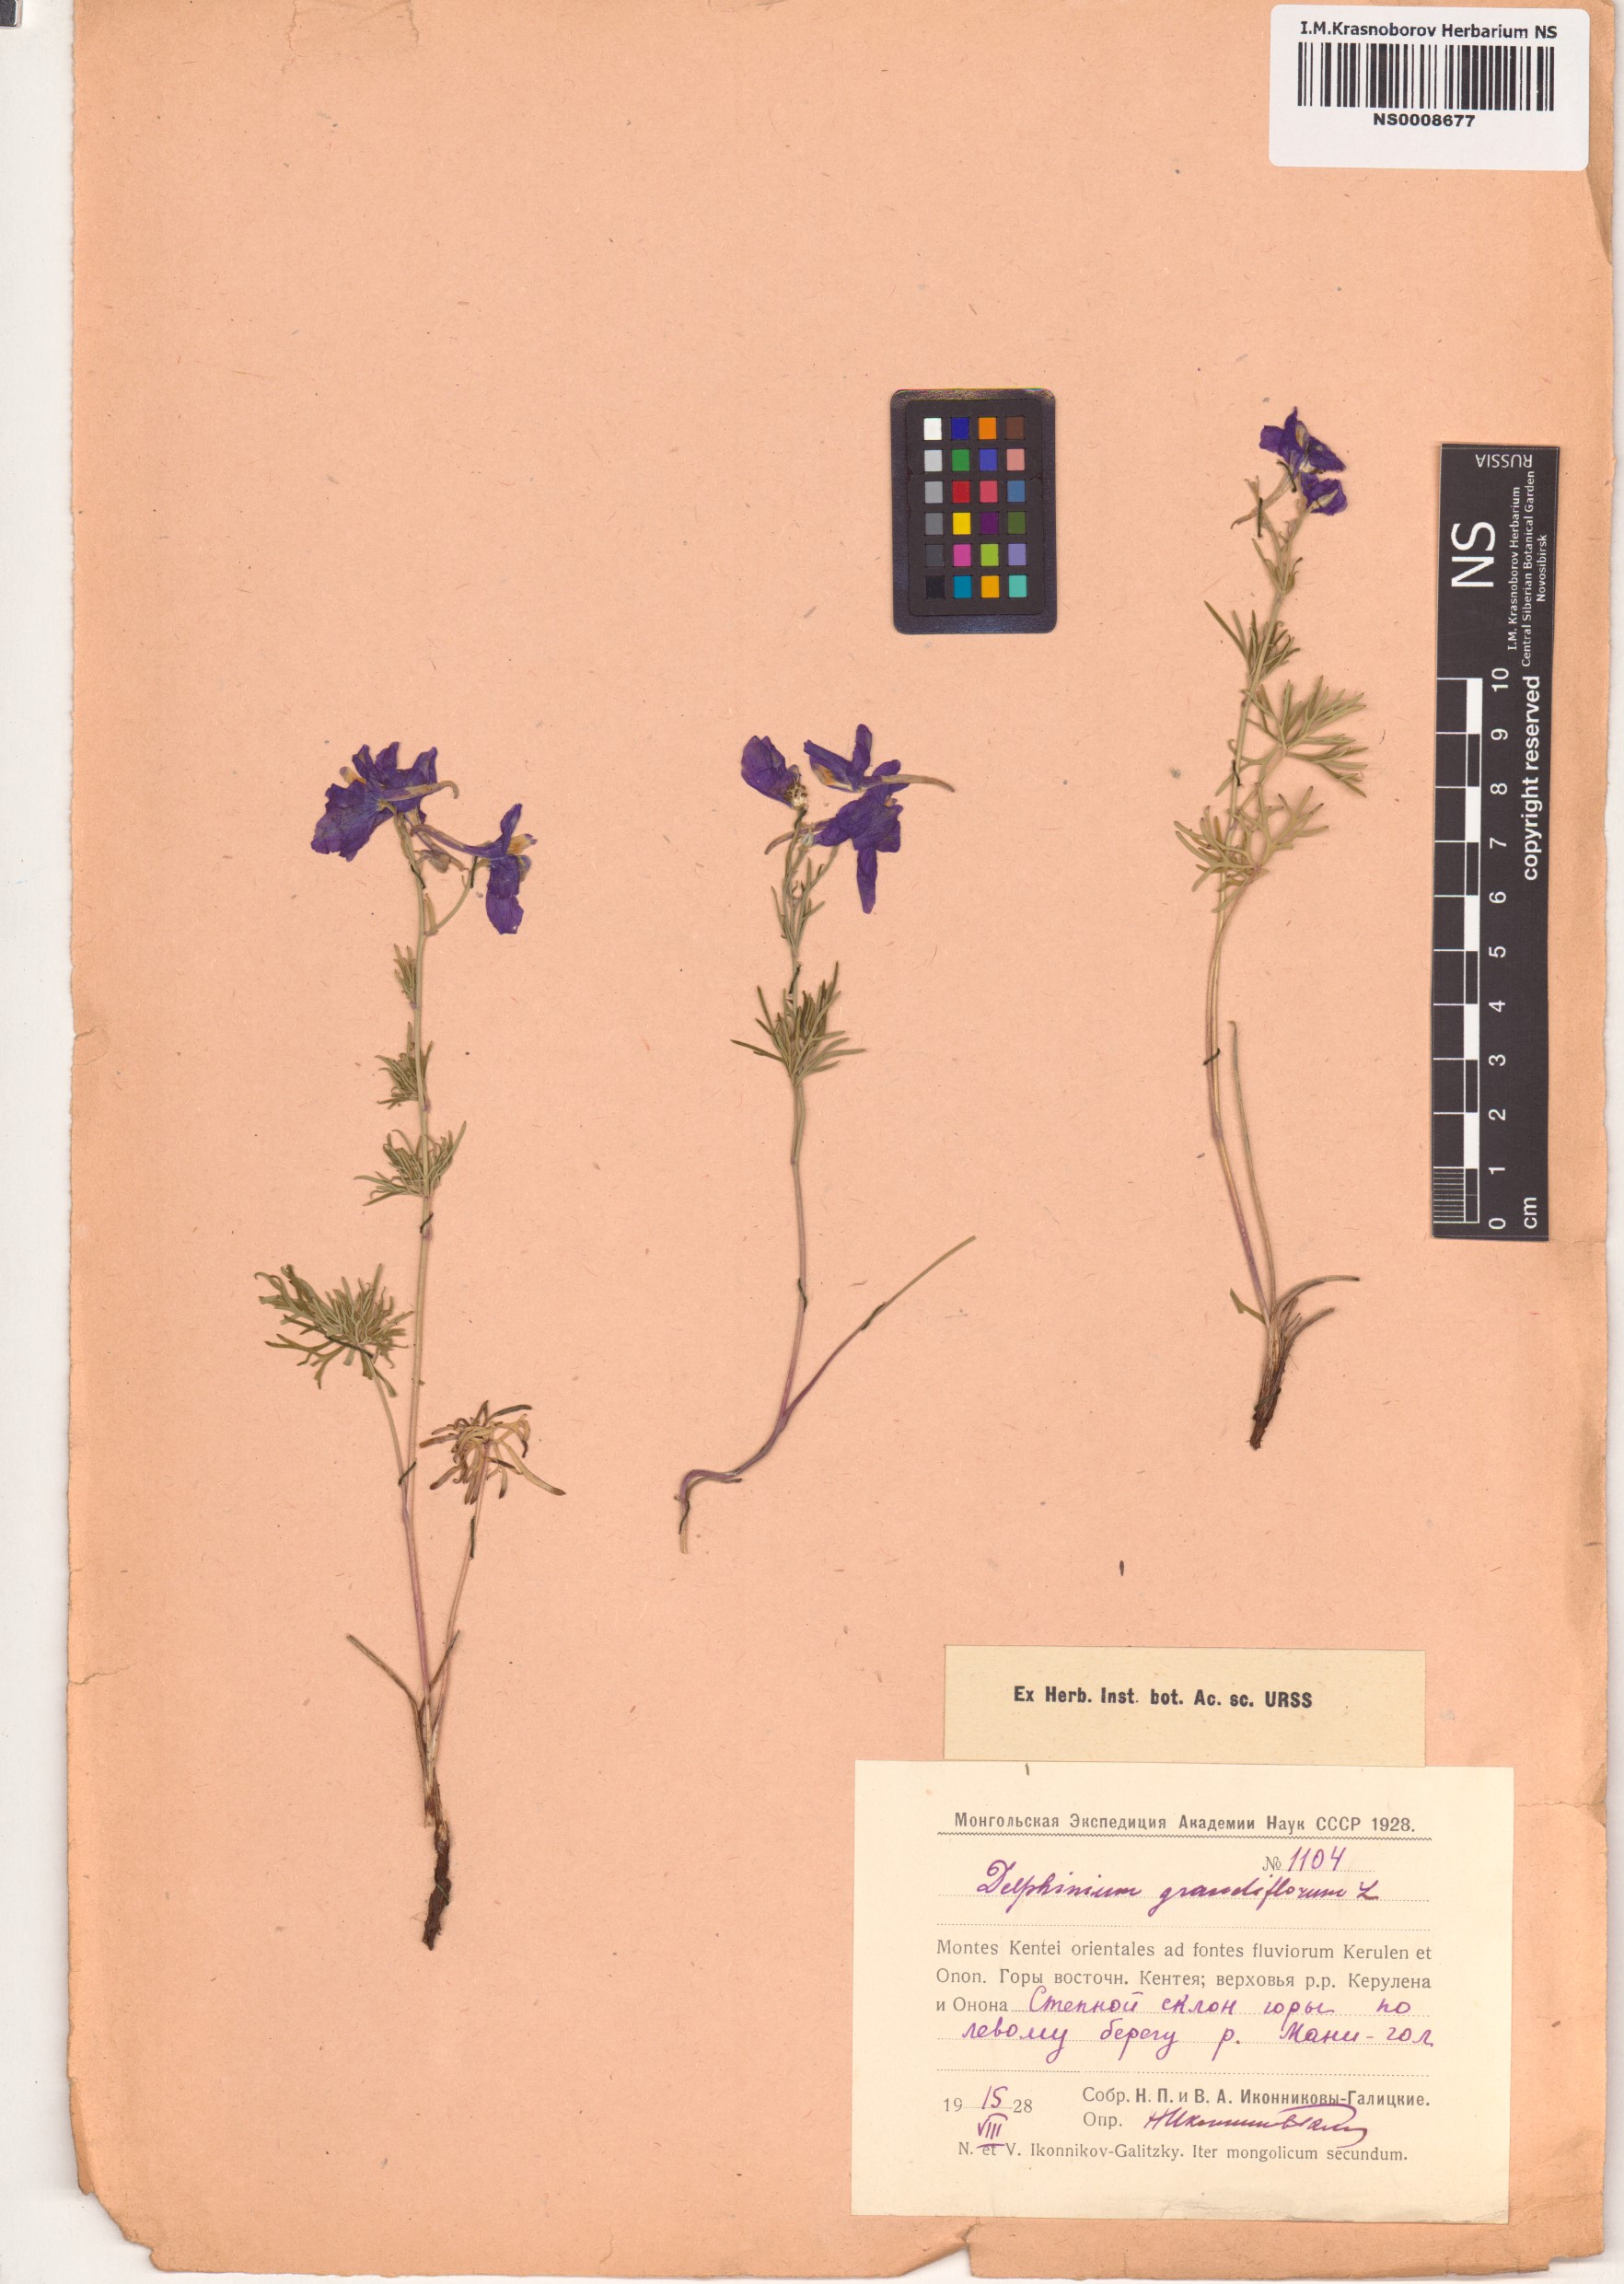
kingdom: Plantae
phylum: Tracheophyta
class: Magnoliopsida
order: Ranunculales
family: Ranunculaceae
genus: Delphinium
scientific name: Delphinium grandiflorum
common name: Siberian larkspur
